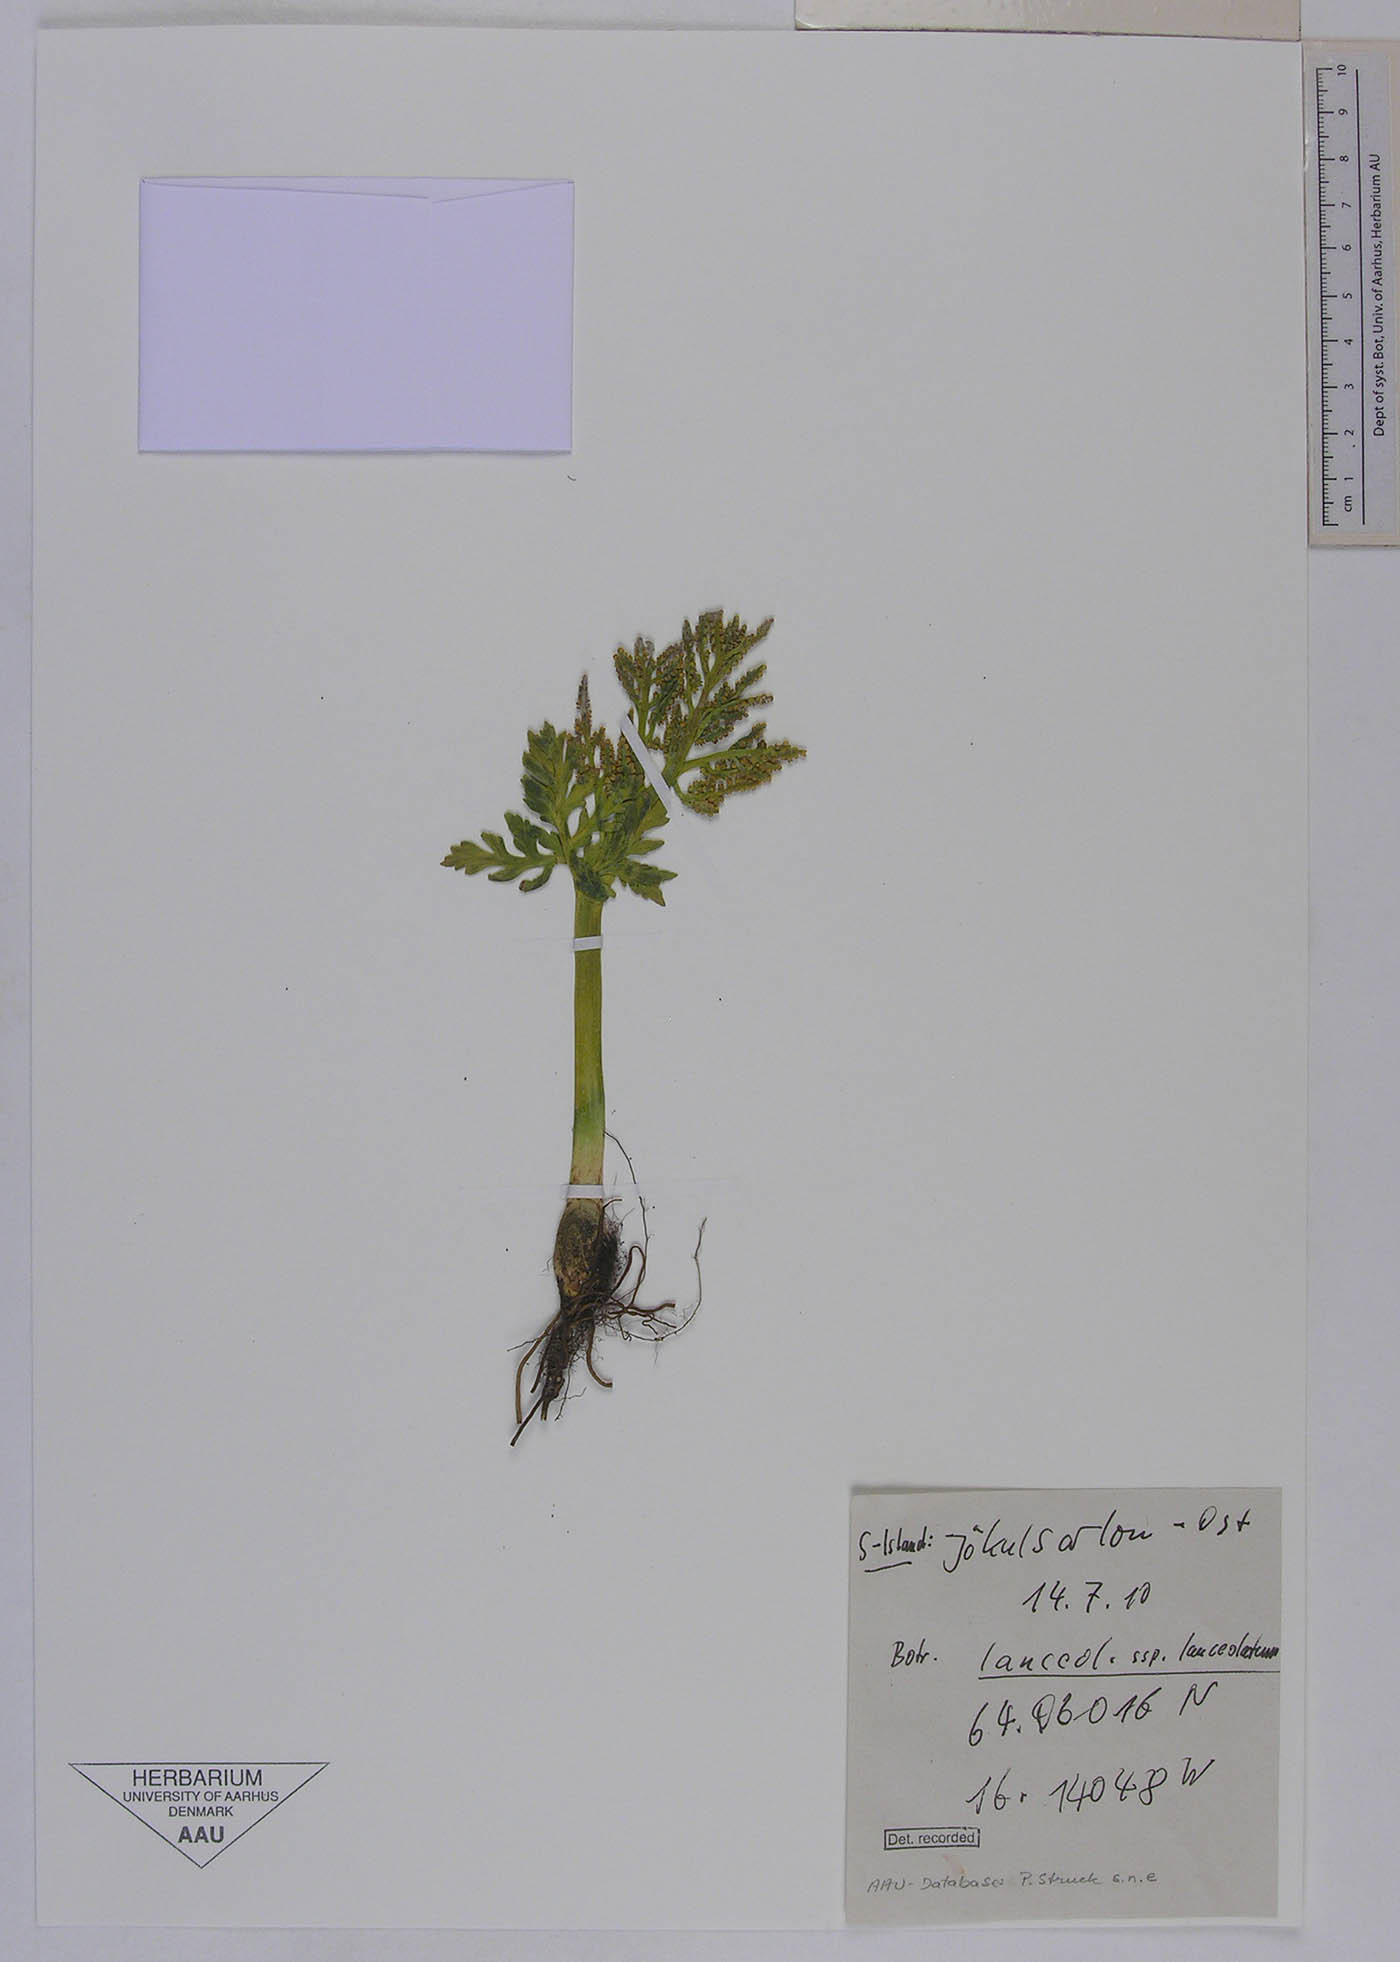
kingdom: Plantae
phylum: Tracheophyta
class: Polypodiopsida
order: Ophioglossales
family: Ophioglossaceae
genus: Botrychium
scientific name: Botrychium matricariifolium
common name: Branched moonwort
